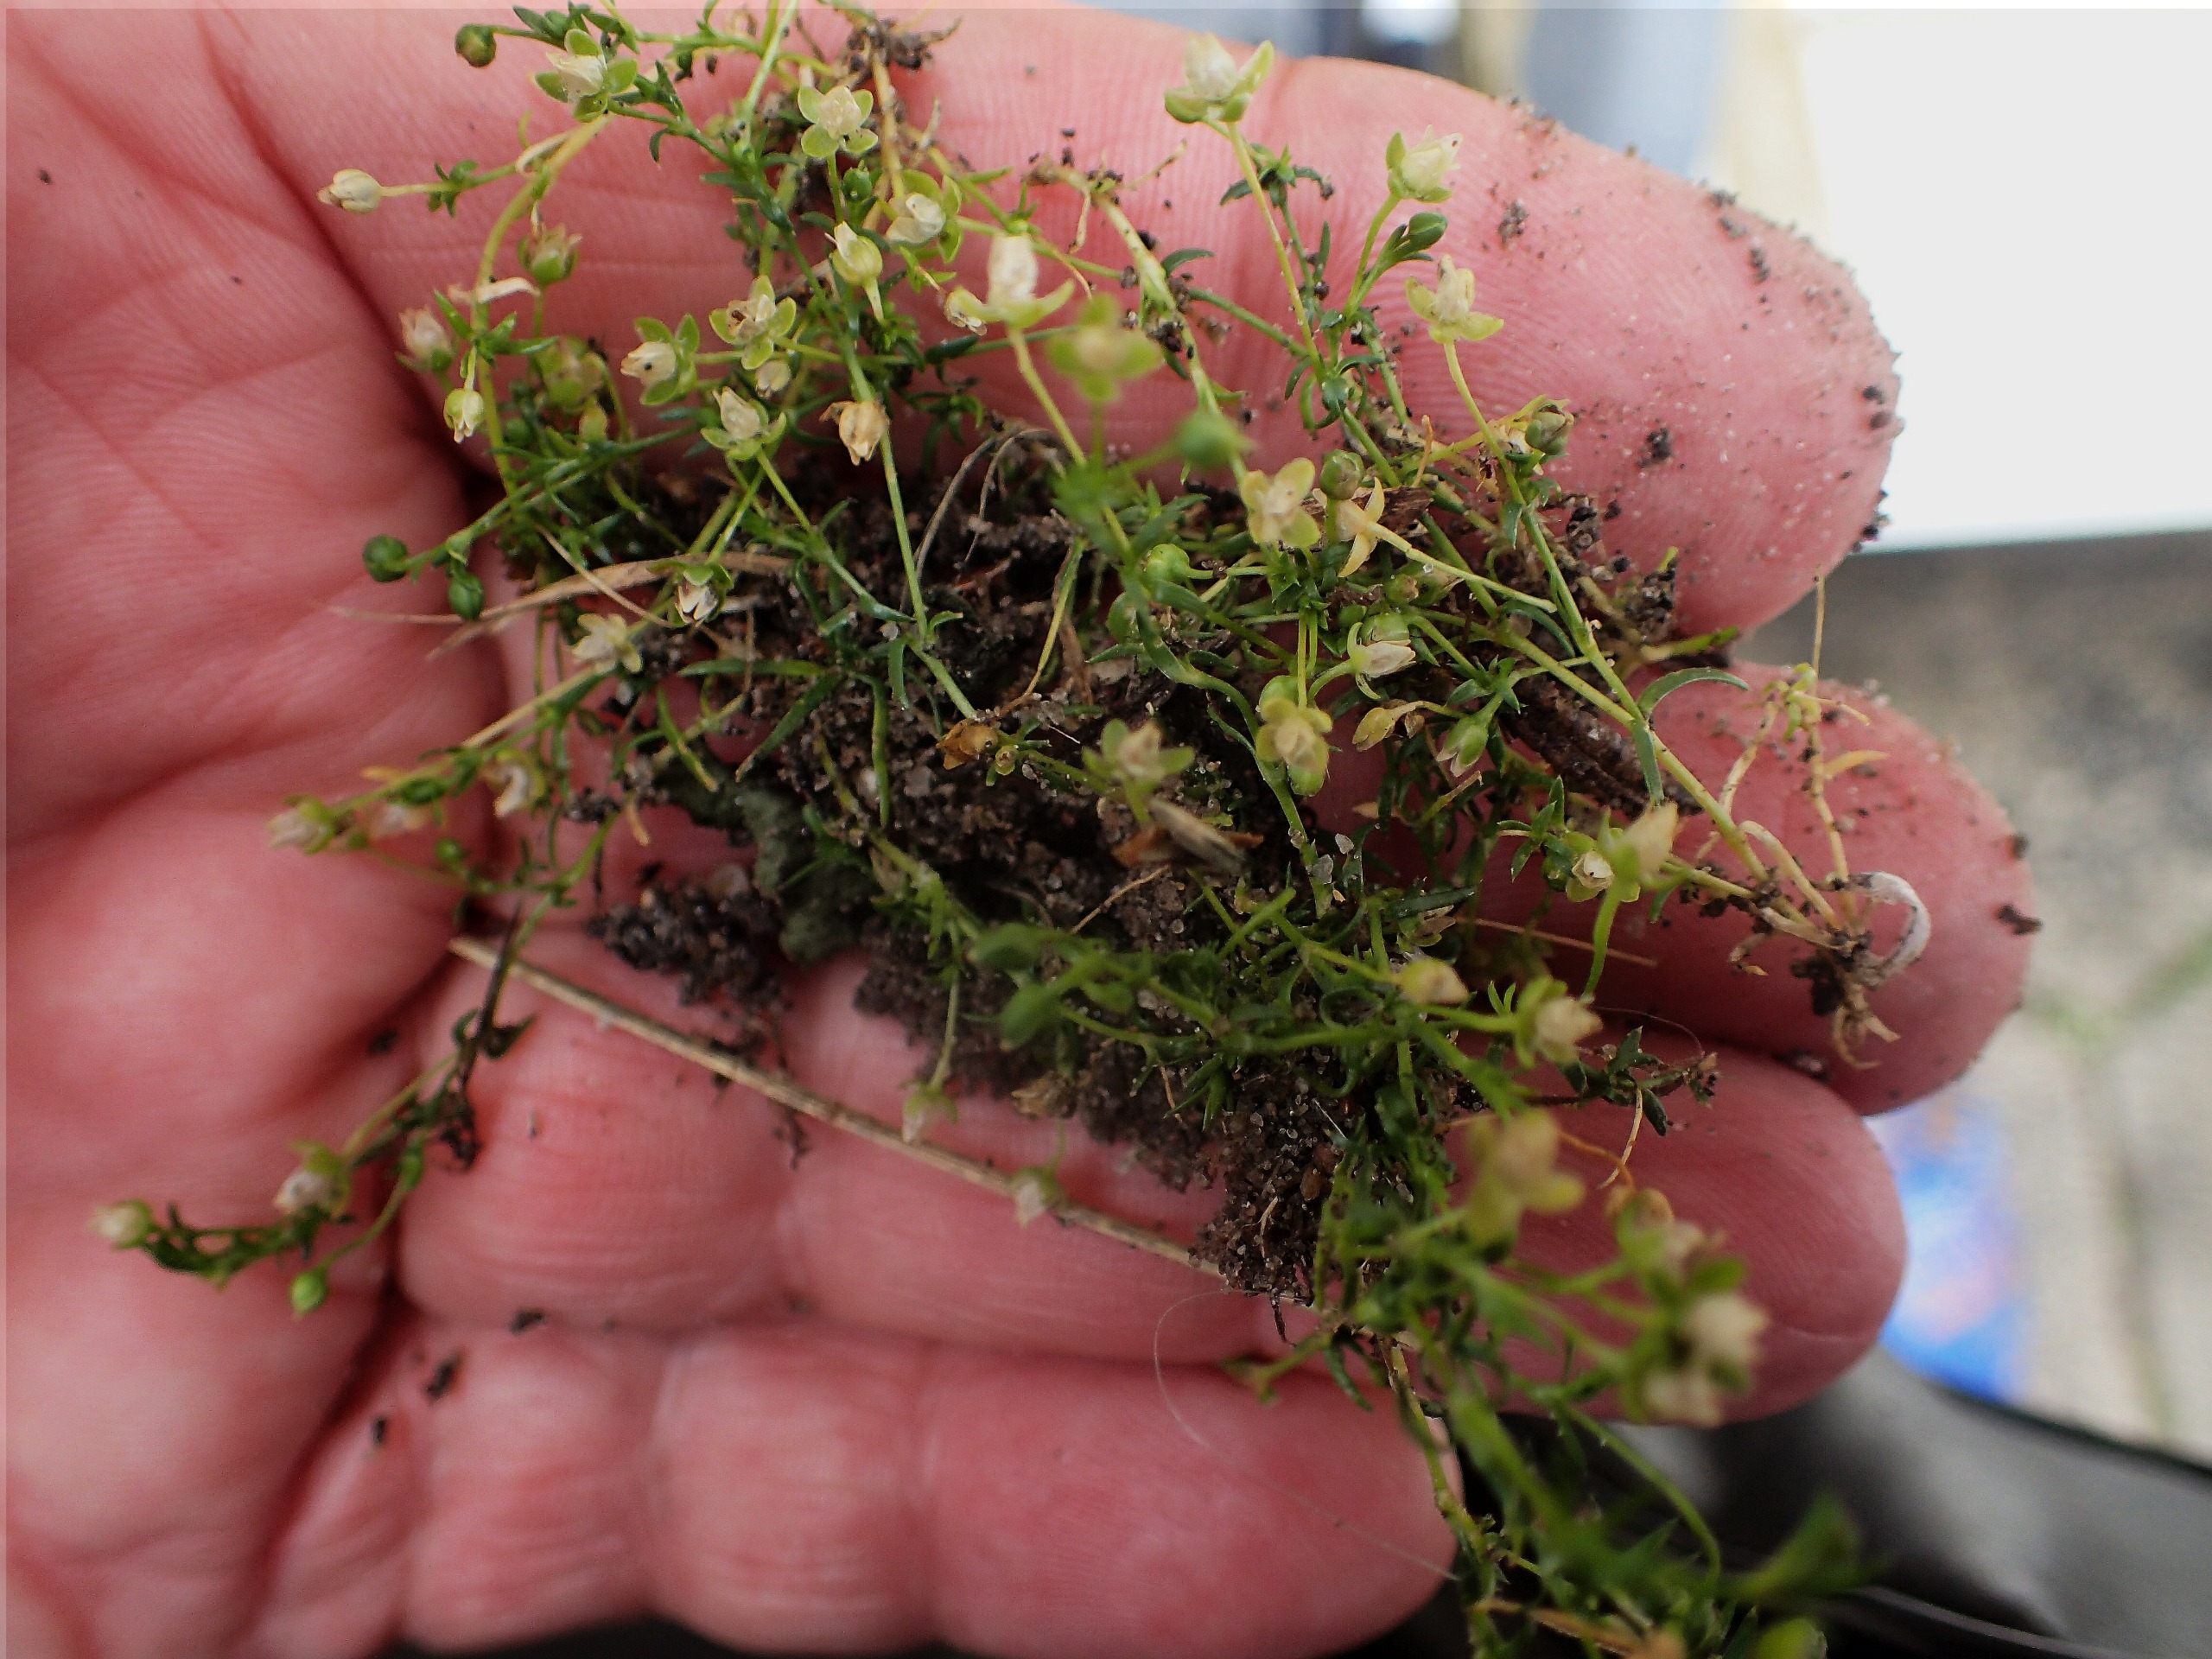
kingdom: Plantae
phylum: Tracheophyta
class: Magnoliopsida
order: Caryophyllales
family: Caryophyllaceae
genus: Sagina
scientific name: Sagina procumbens
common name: Almindelig firling
